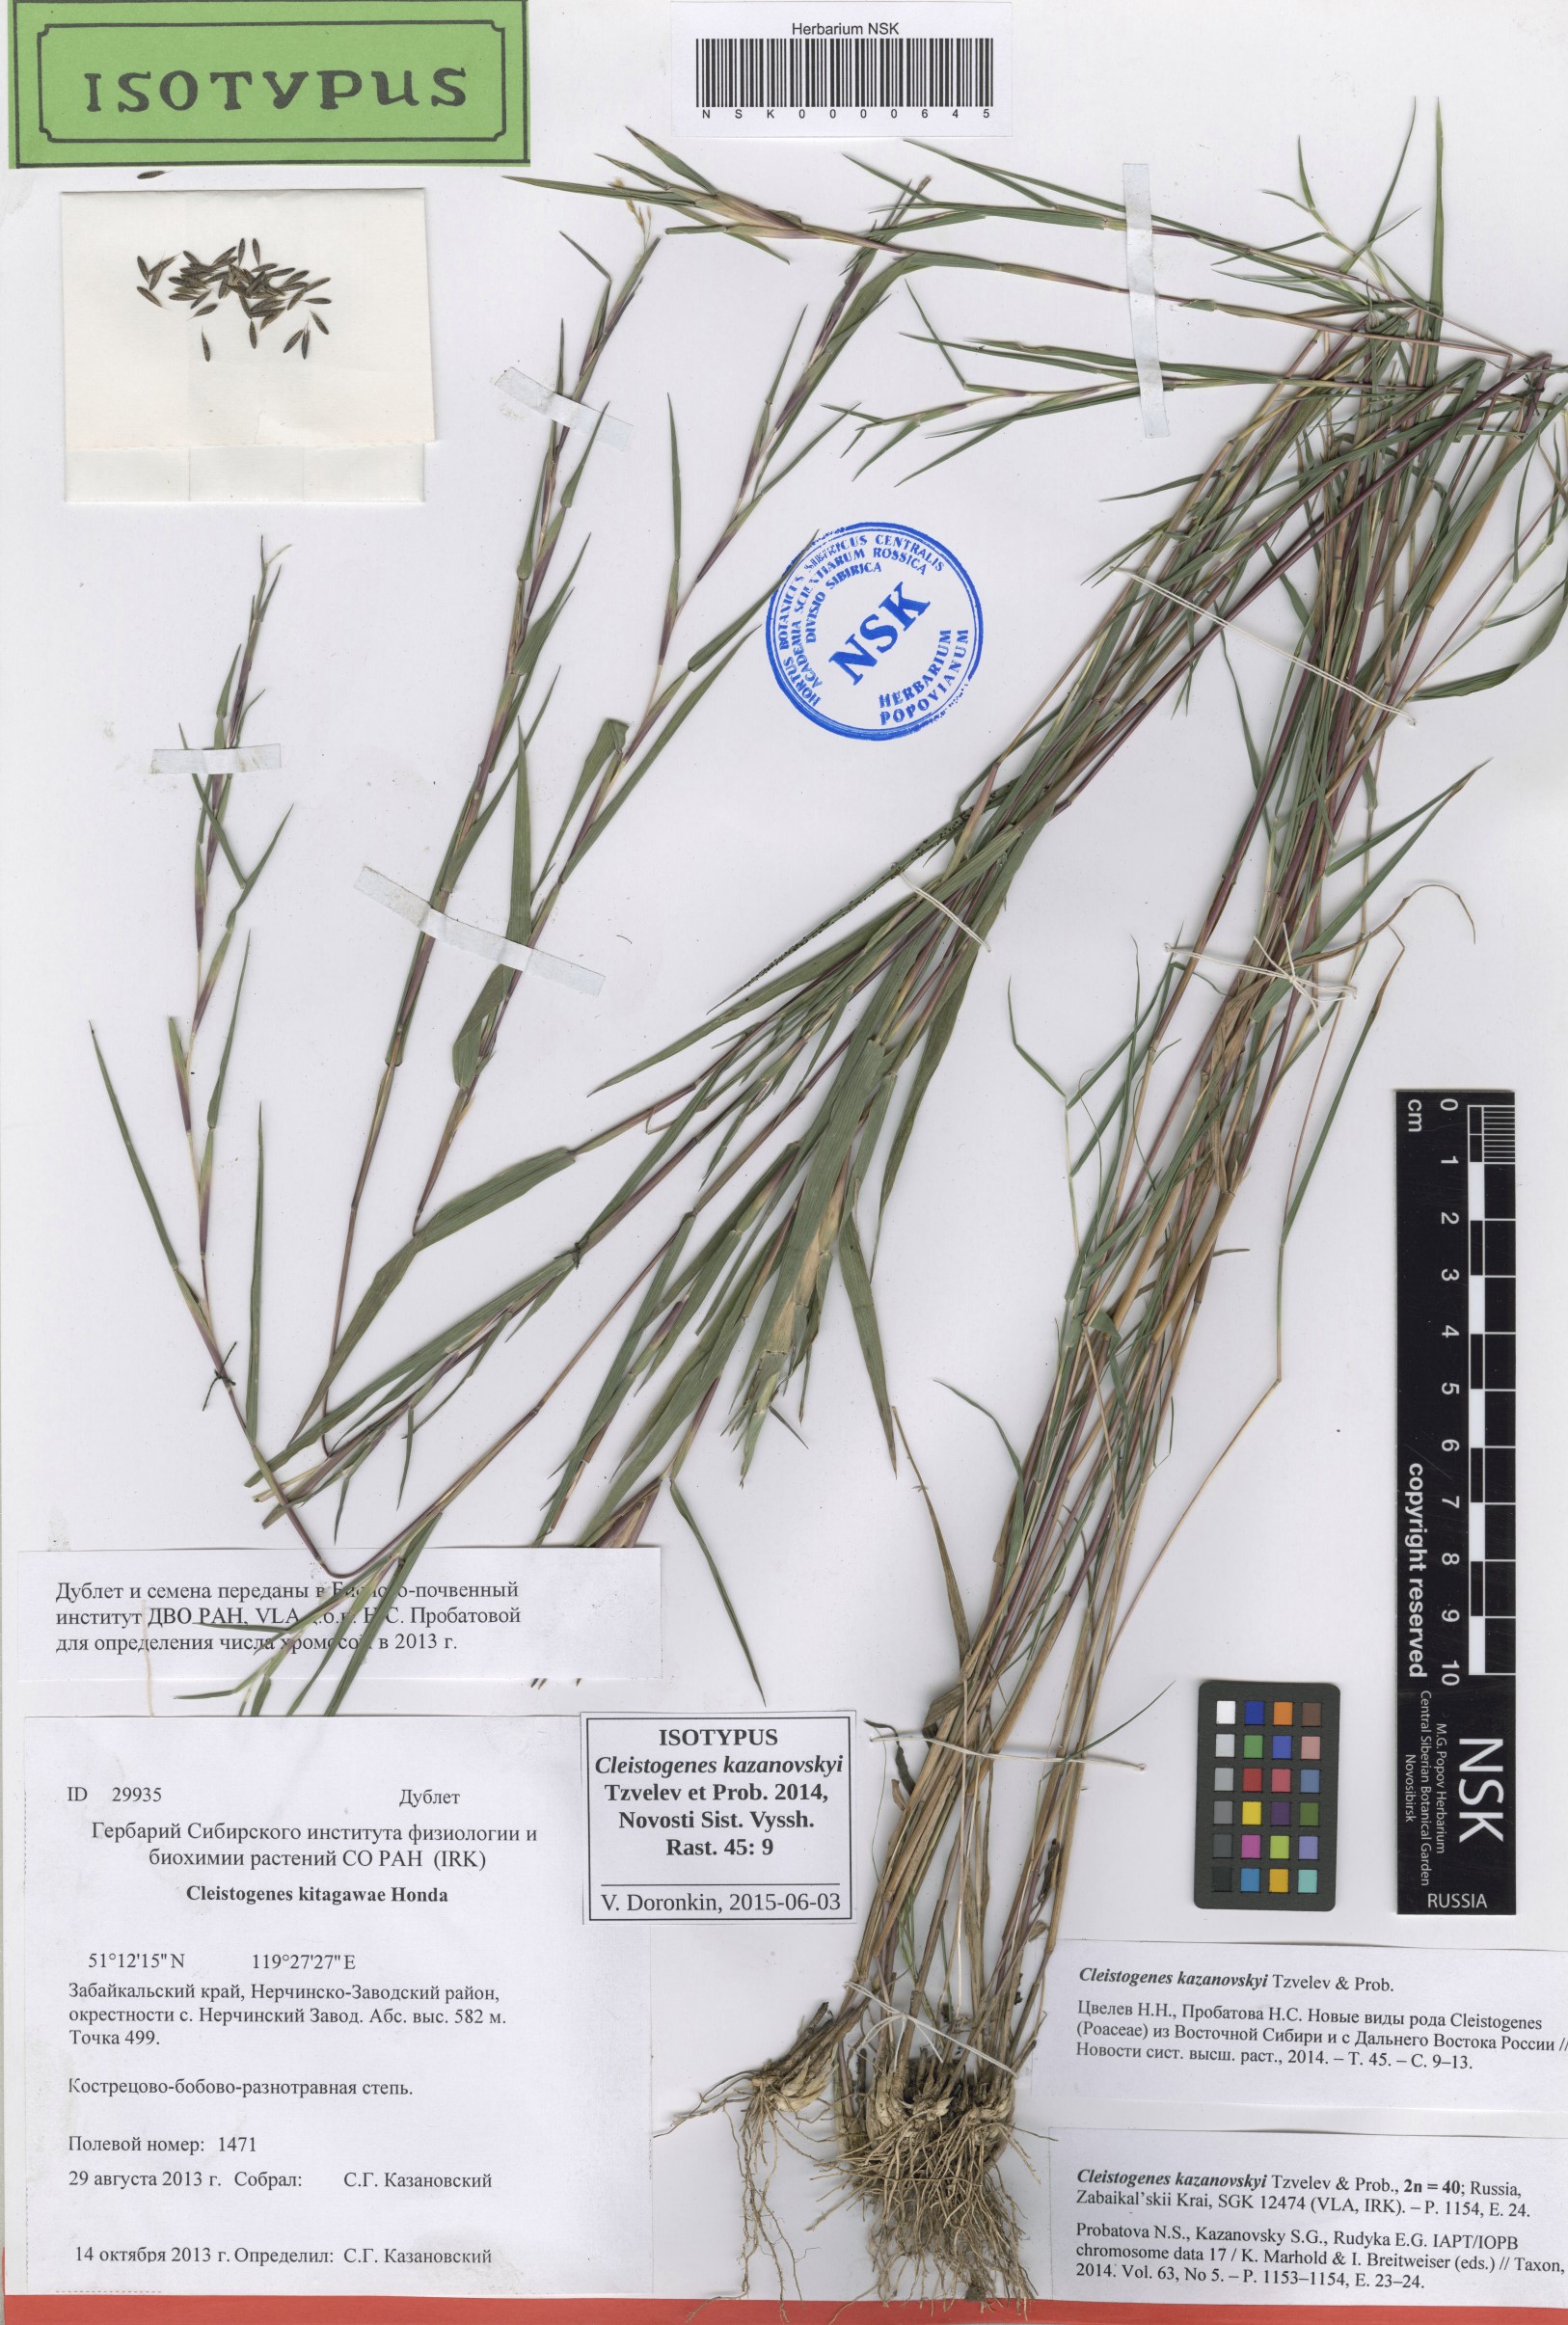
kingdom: Plantae
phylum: Tracheophyta
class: Liliopsida
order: Poales
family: Poaceae
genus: Cleistogenes
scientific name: Cleistogenes kazanovskyi
